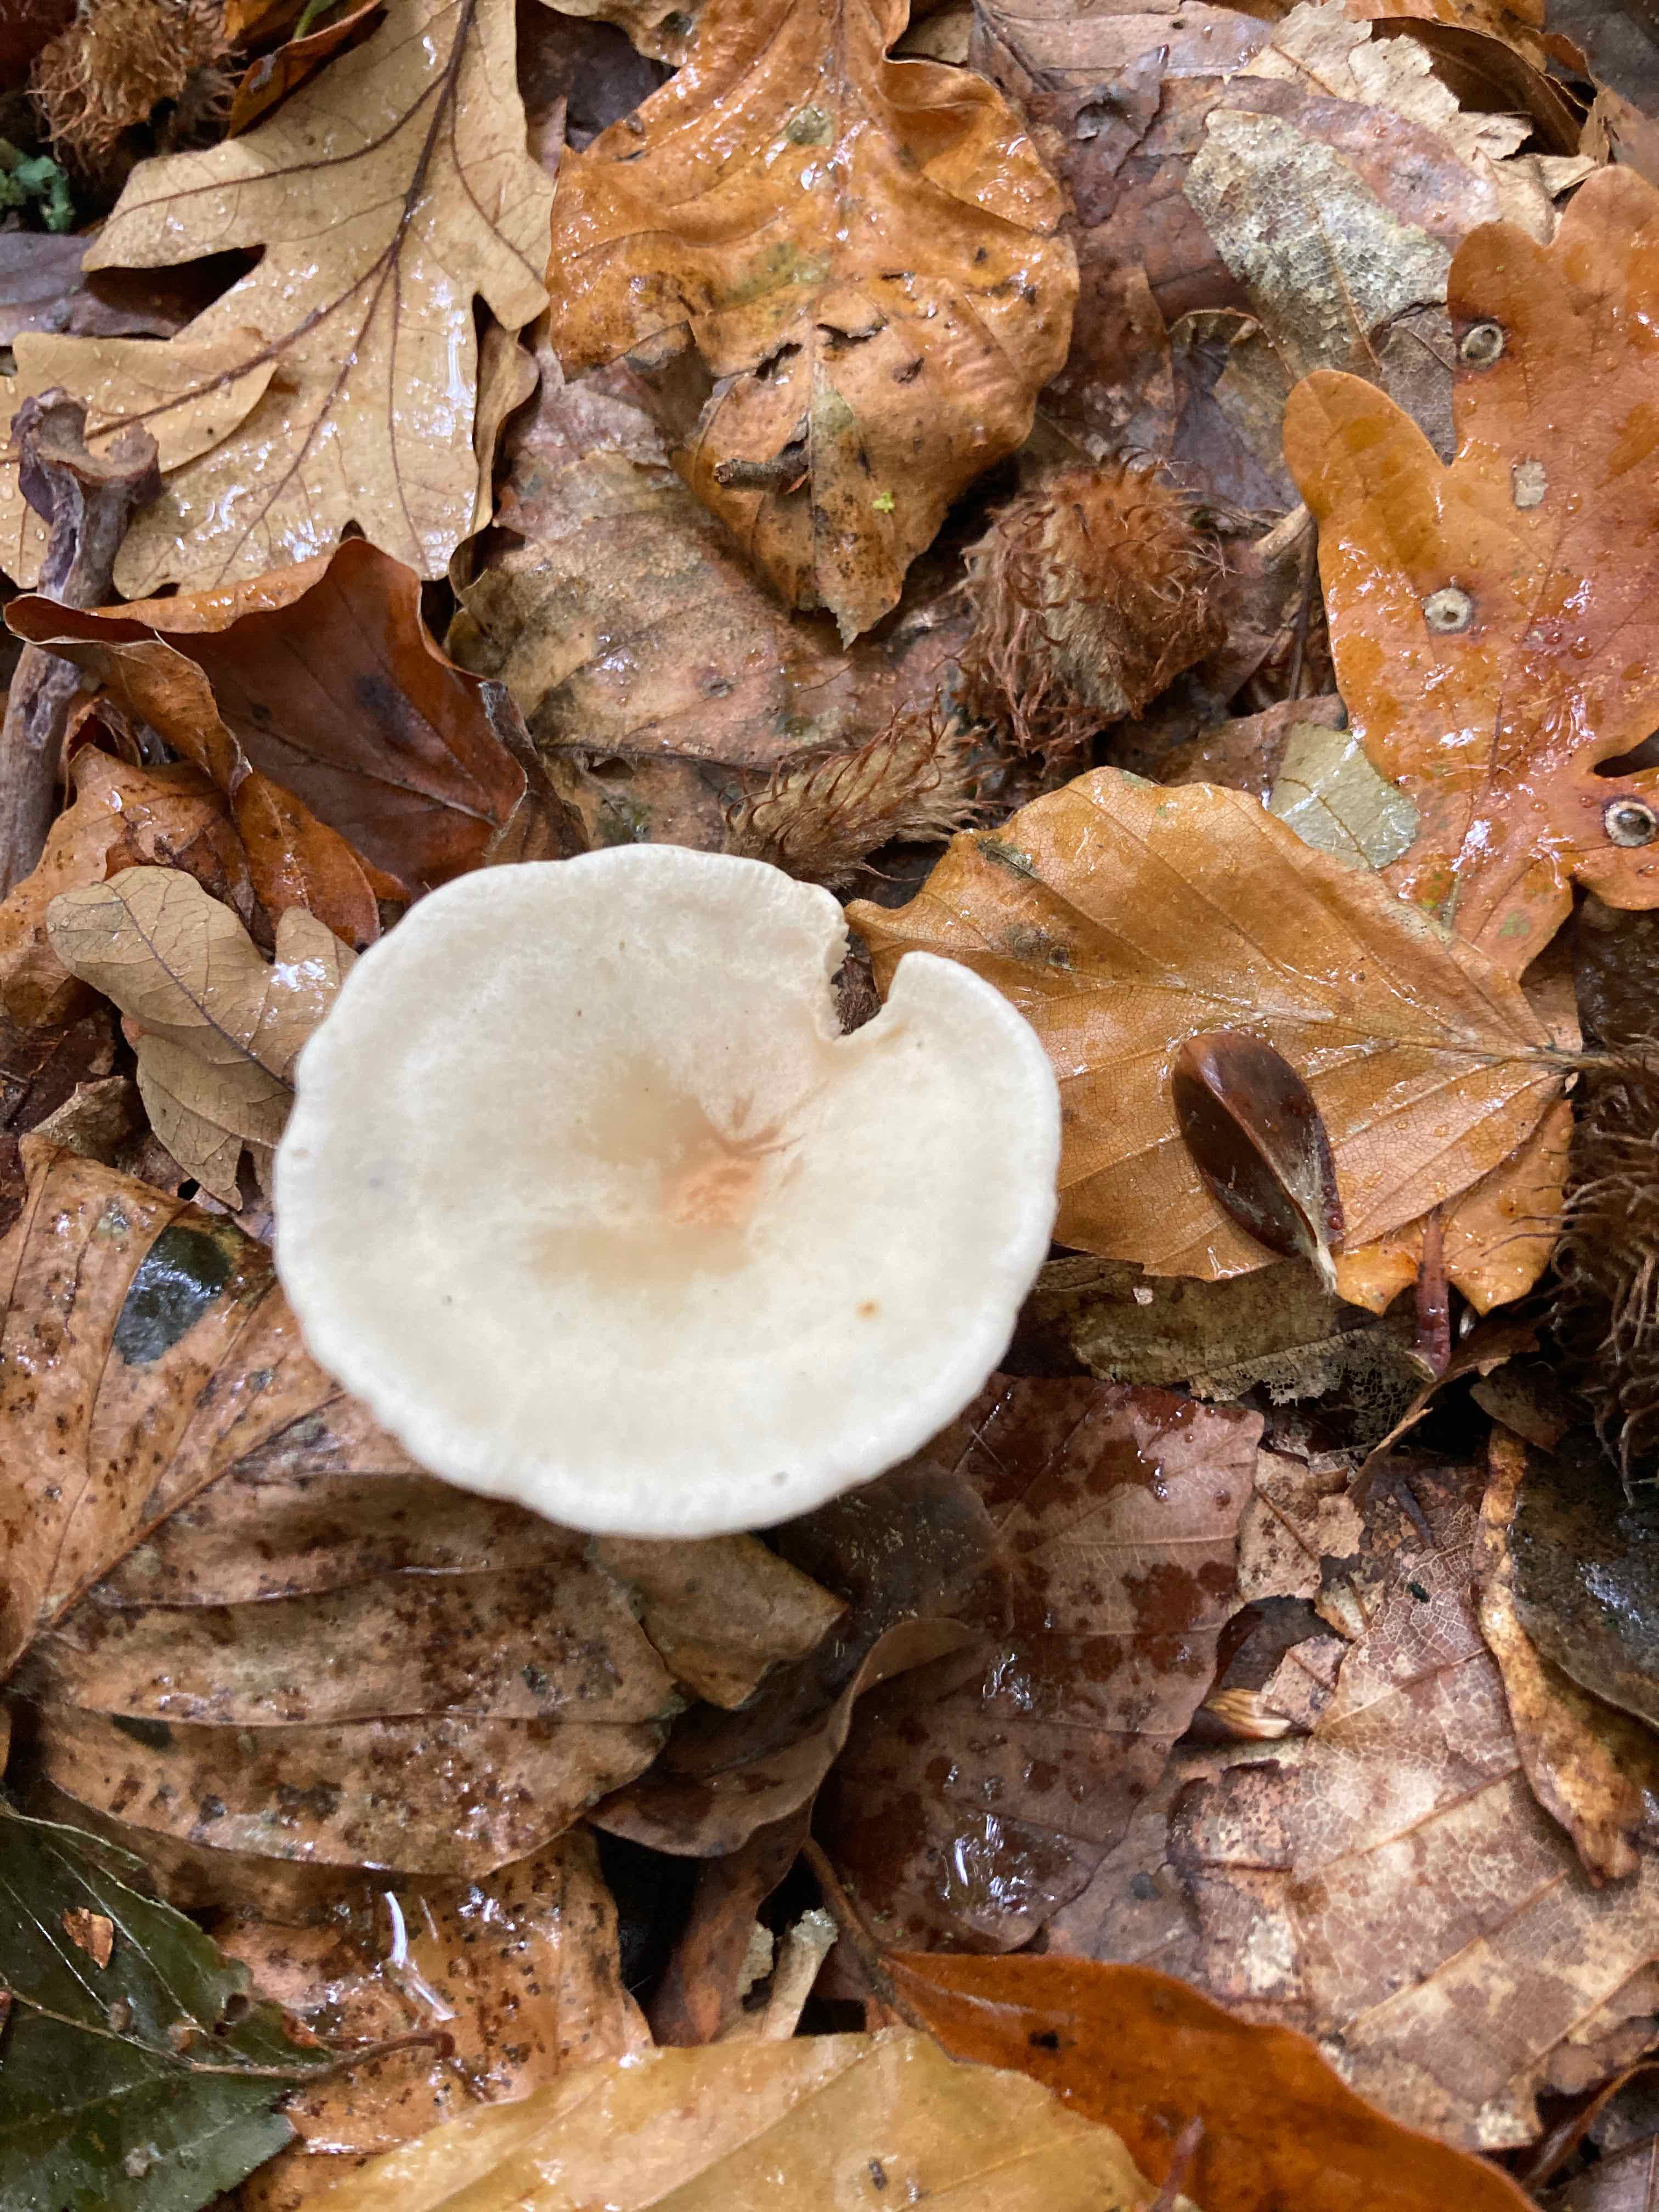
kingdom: Fungi
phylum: Basidiomycota
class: Agaricomycetes
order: Agaricales
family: Tricholomataceae
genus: Infundibulicybe
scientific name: Infundibulicybe gibba
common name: almindelig tragthat
